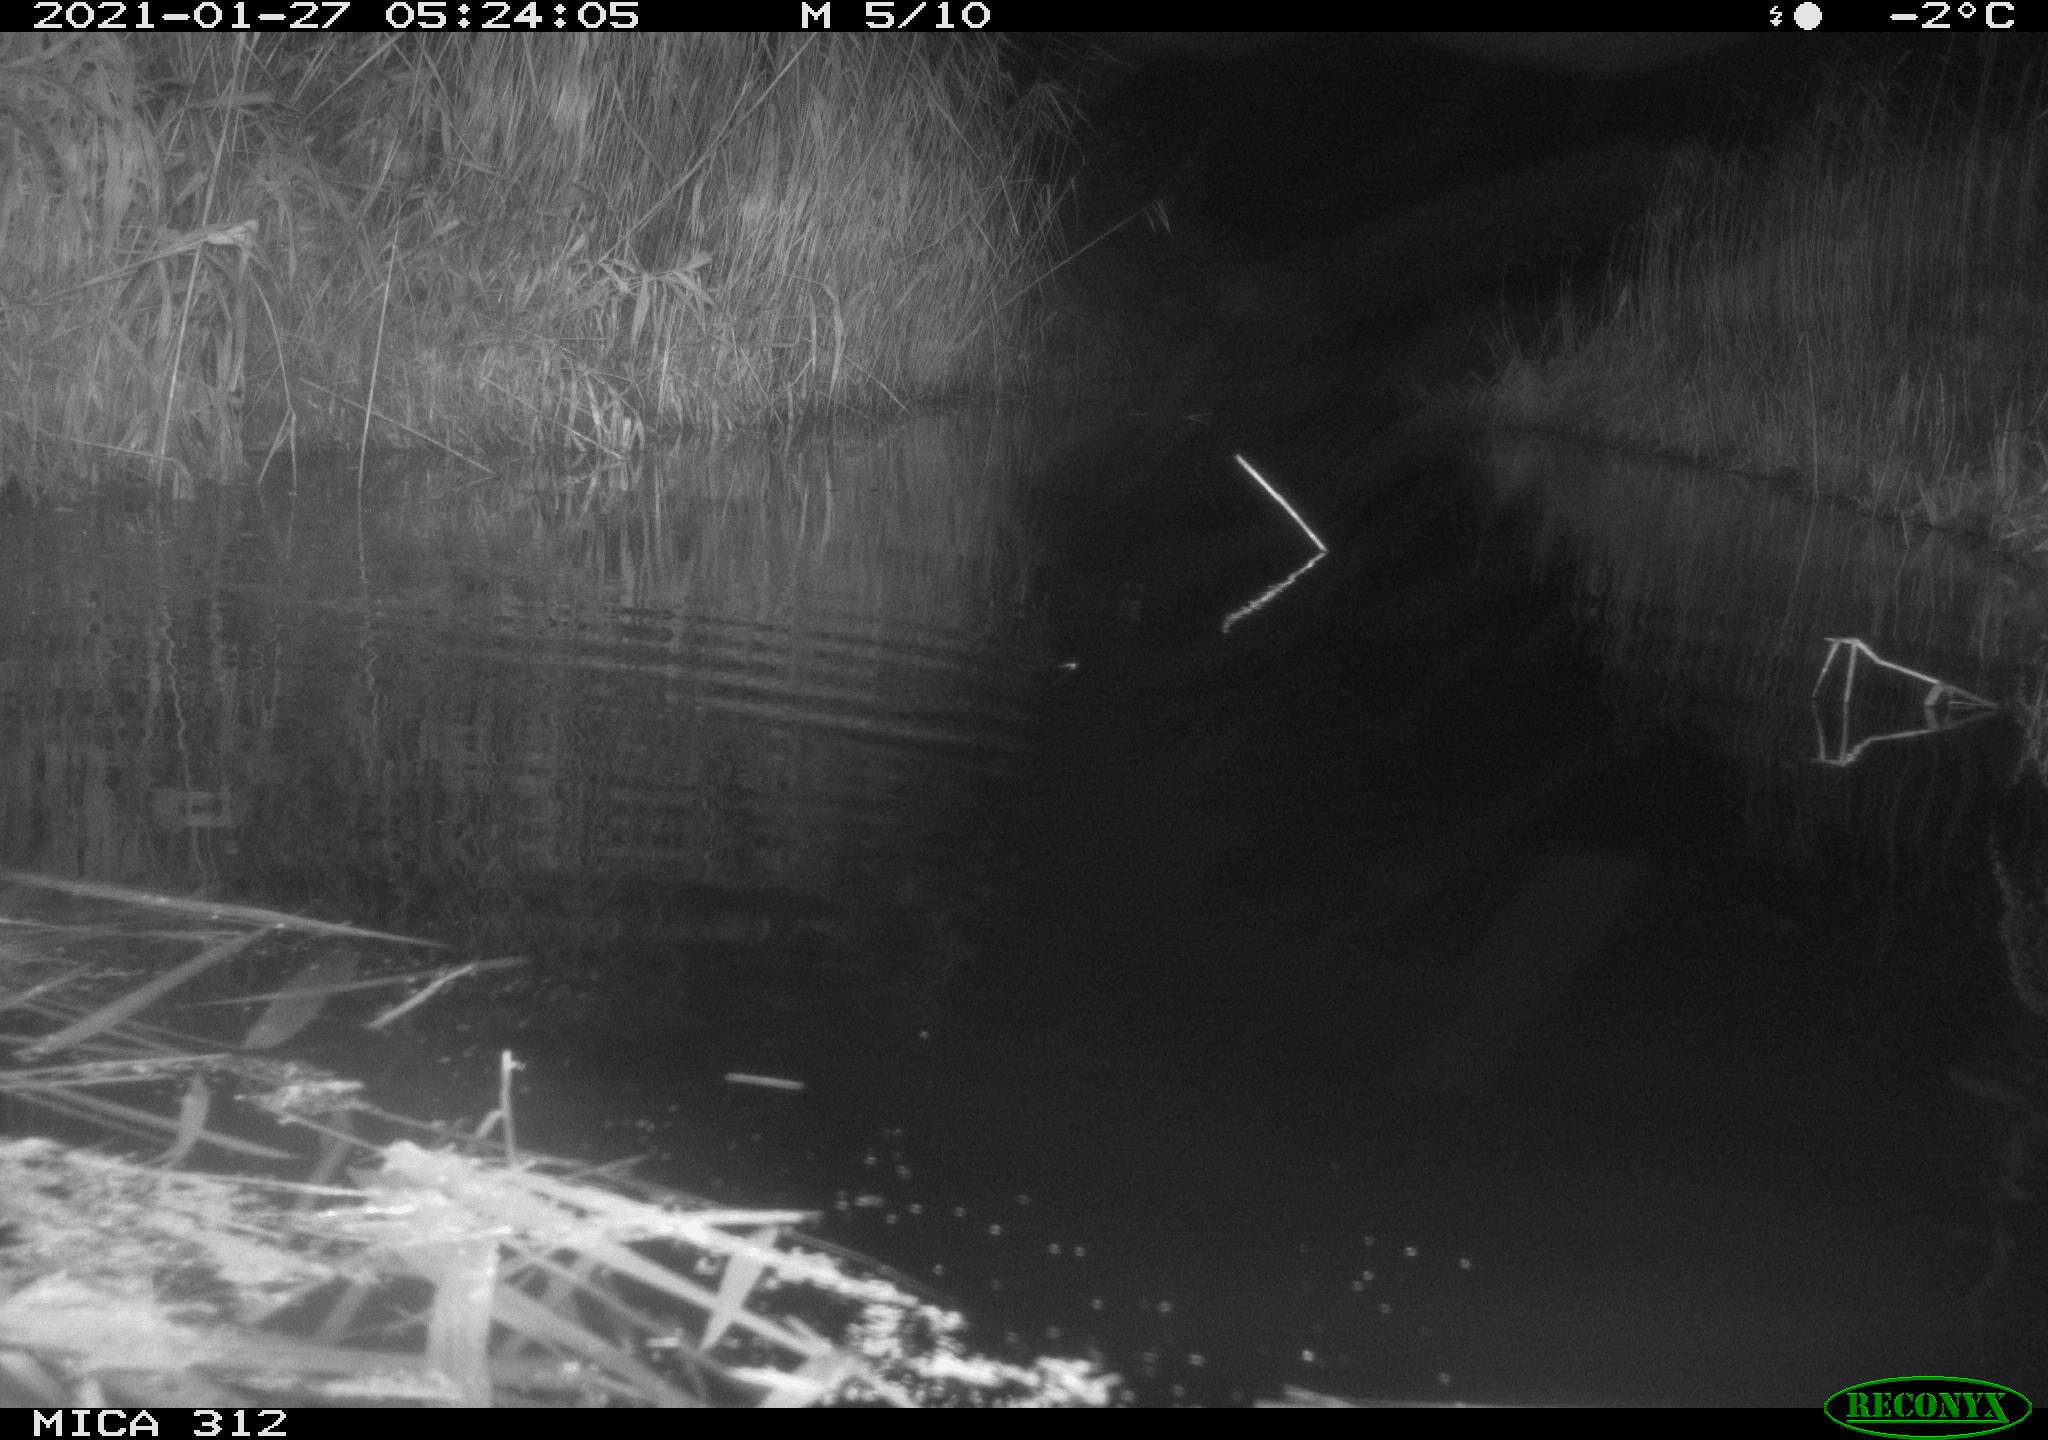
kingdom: Animalia
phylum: Chordata
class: Mammalia
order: Rodentia
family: Muridae
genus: Rattus
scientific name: Rattus norvegicus
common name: Brown rat
